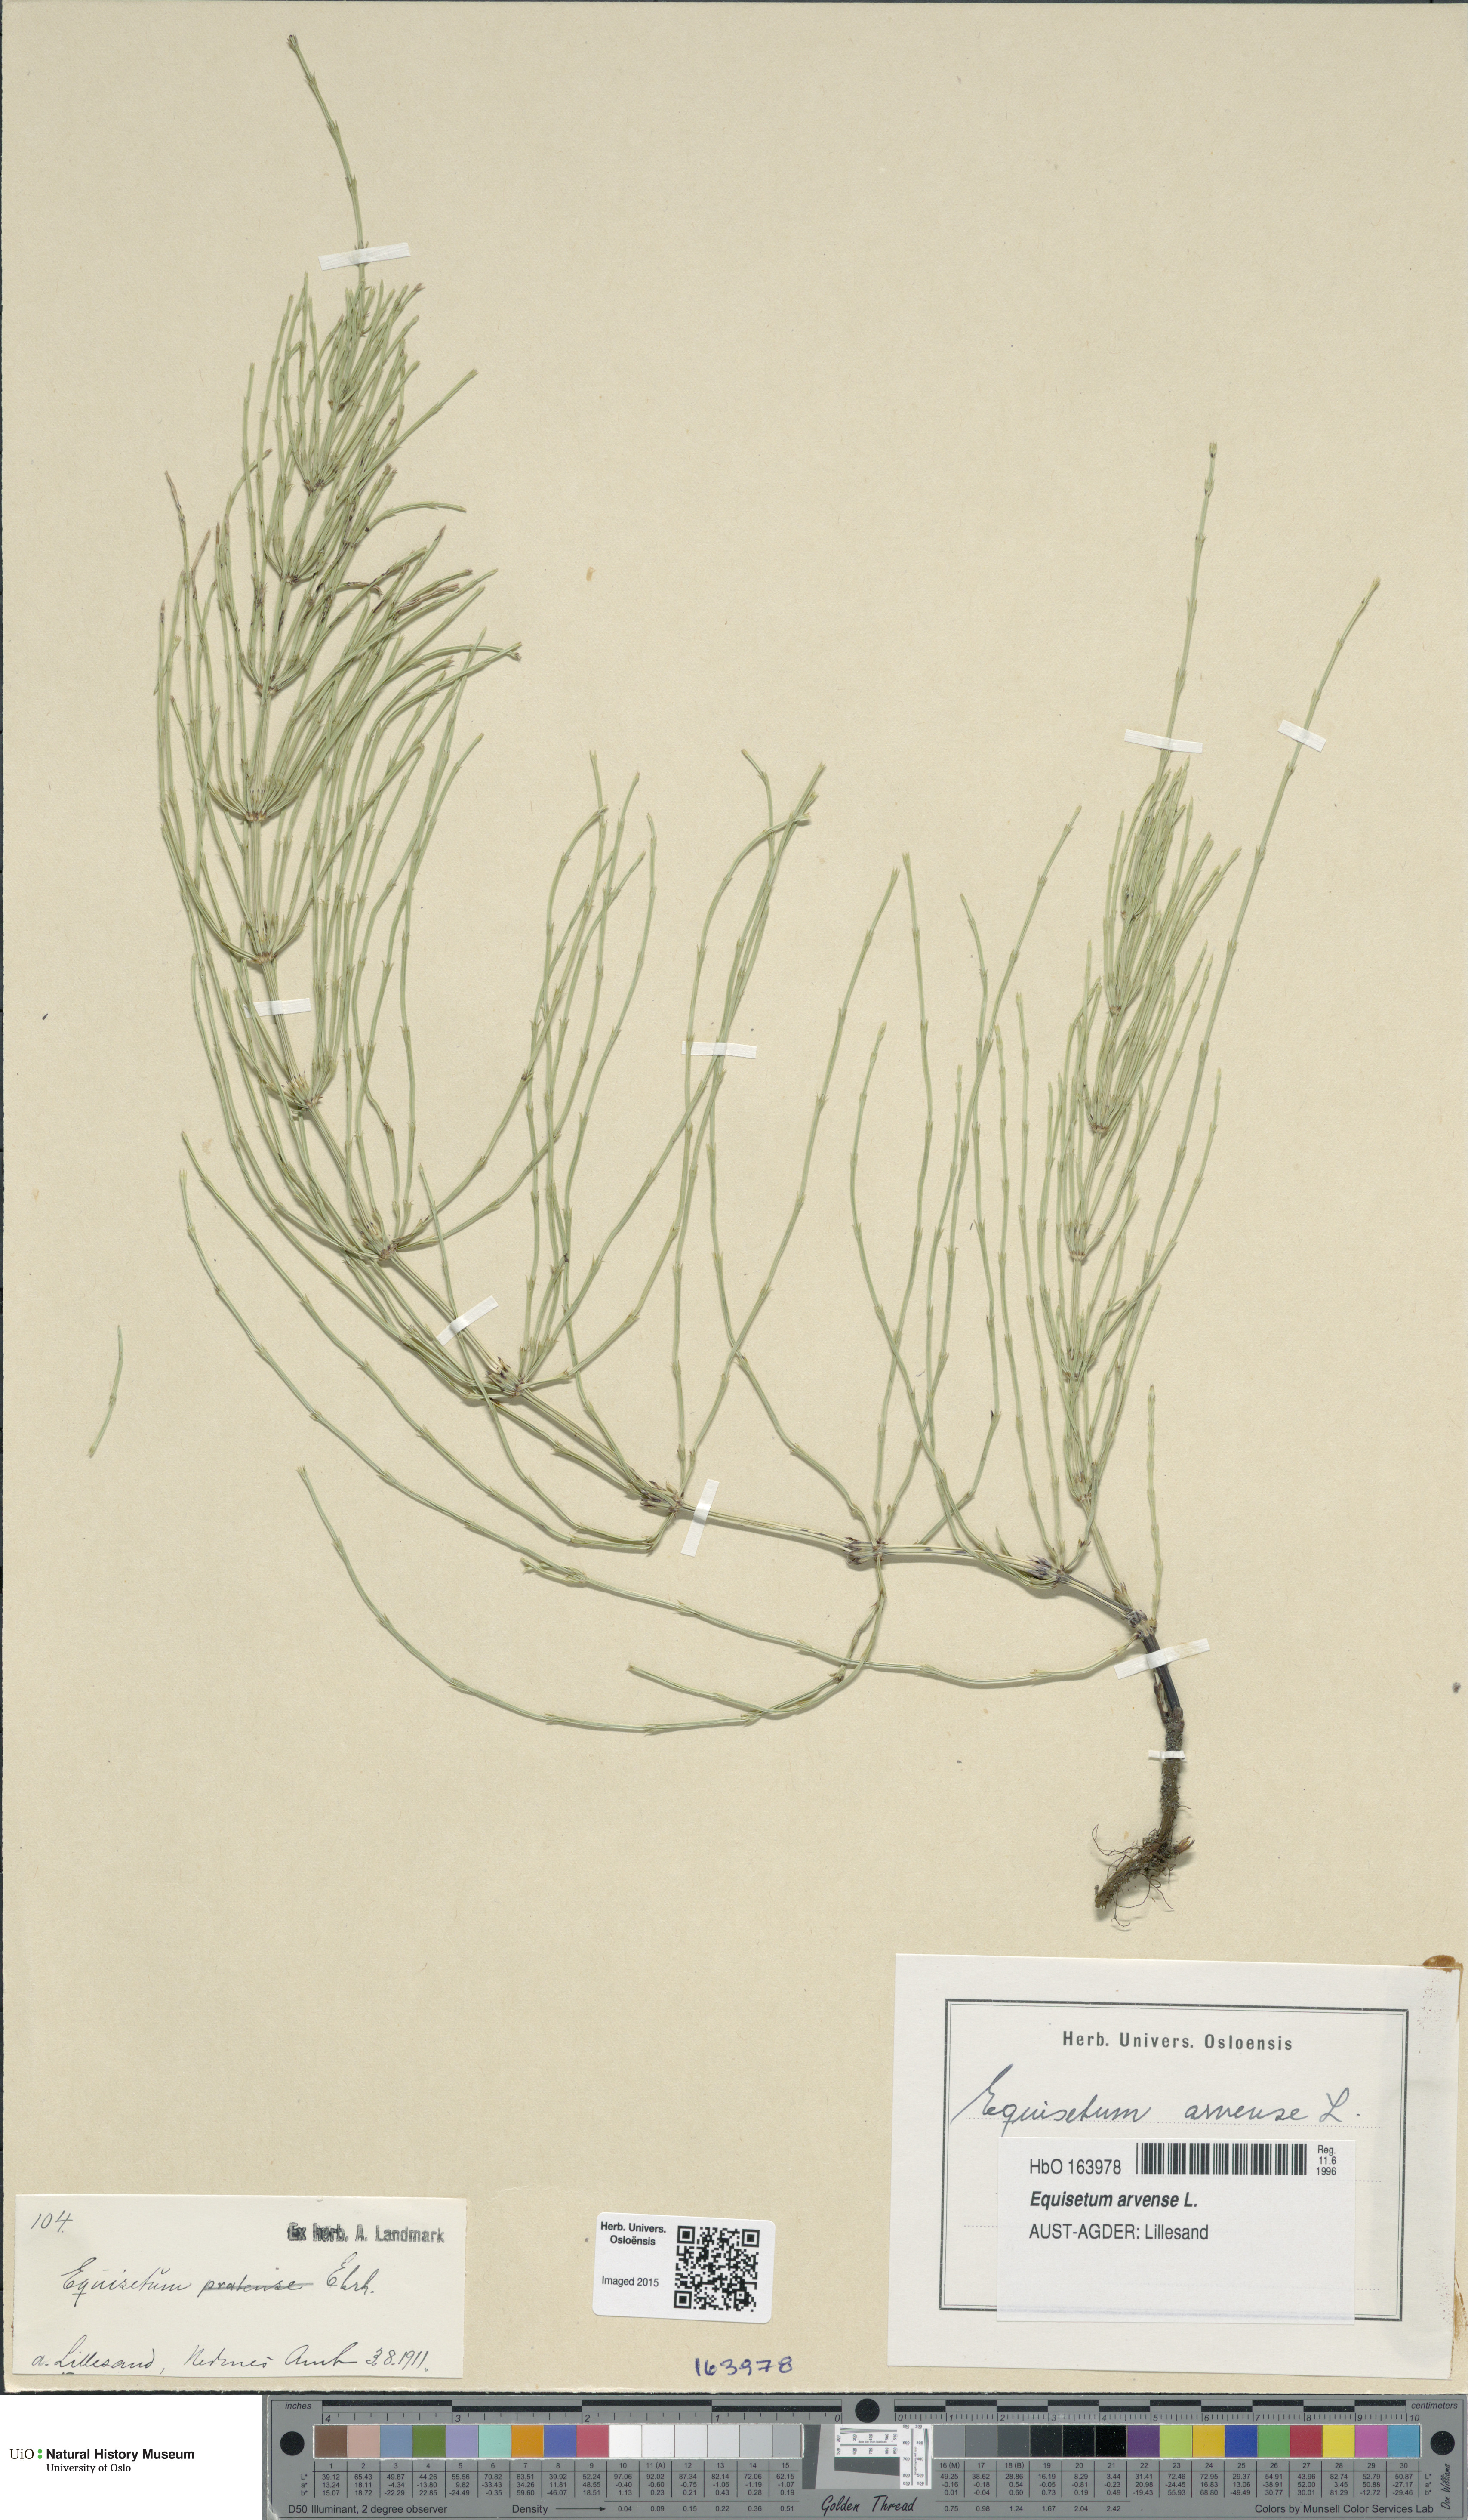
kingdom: Plantae
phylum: Tracheophyta
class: Polypodiopsida
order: Equisetales
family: Equisetaceae
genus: Equisetum
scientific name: Equisetum arvense
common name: Field horsetail
